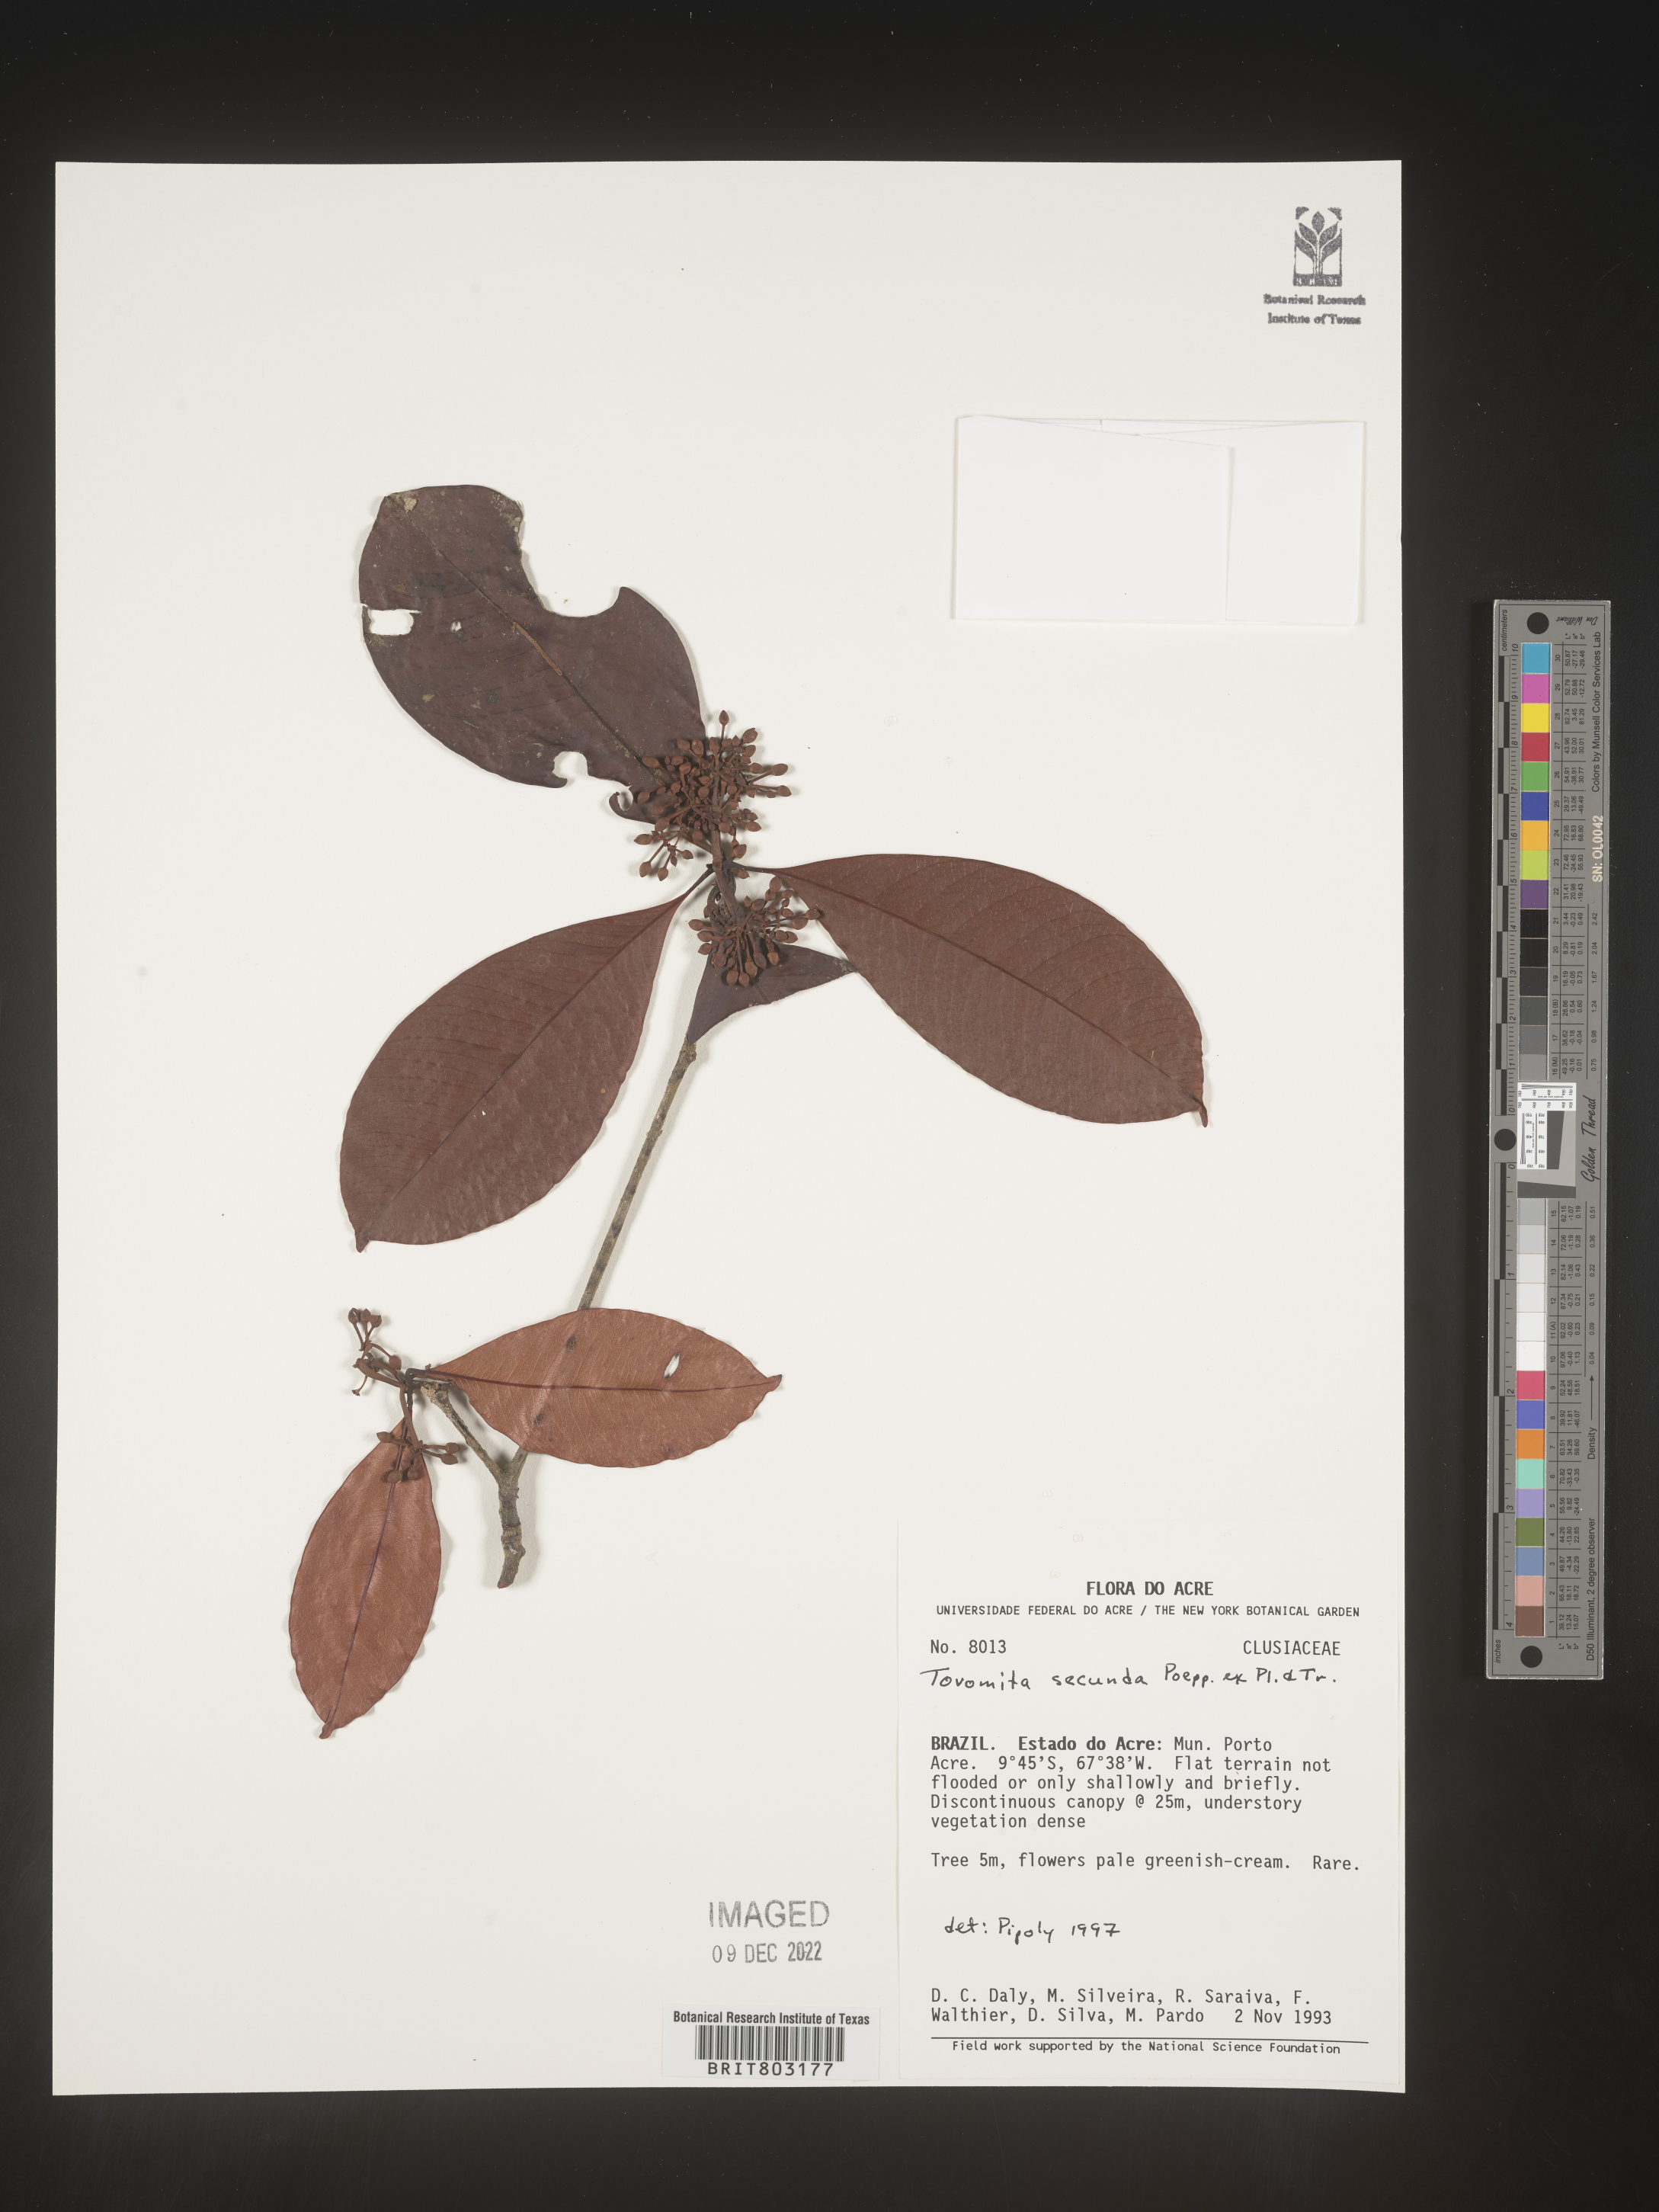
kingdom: Plantae
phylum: Tracheophyta
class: Magnoliopsida
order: Malpighiales
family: Clusiaceae
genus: Tovomita
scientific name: Tovomita
